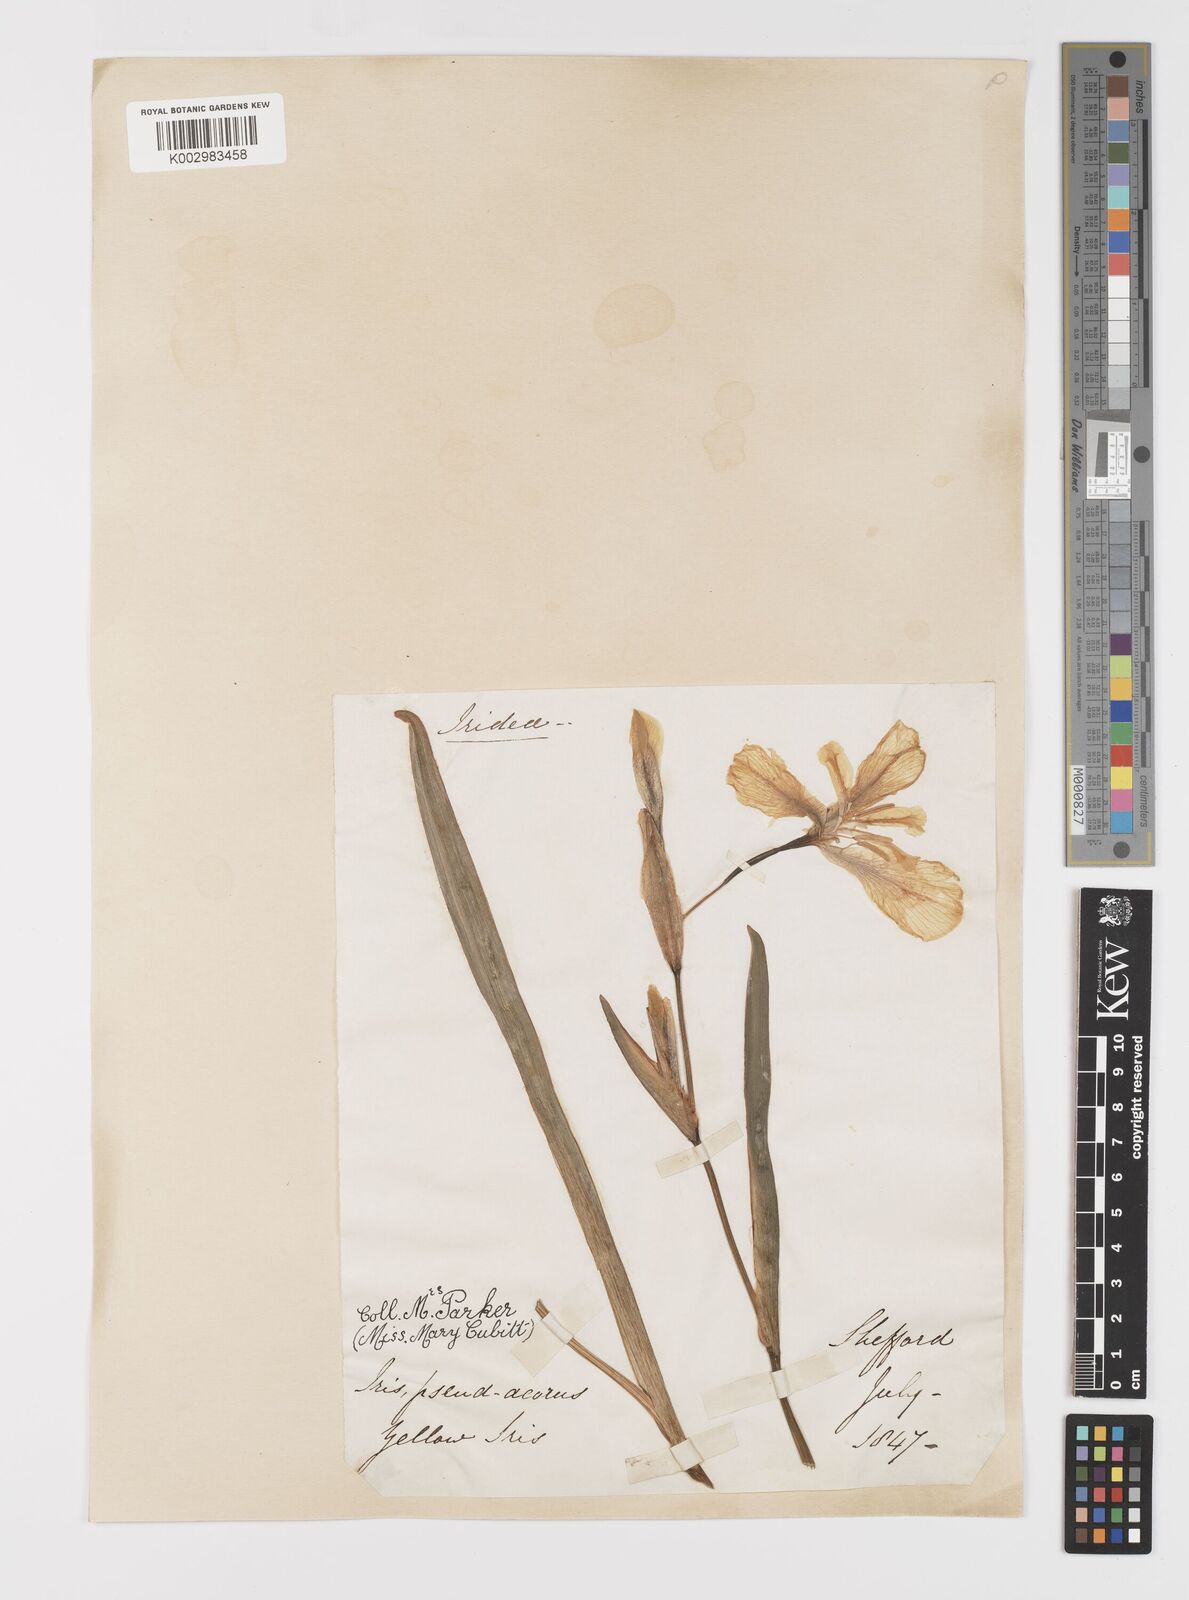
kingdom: Plantae
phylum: Tracheophyta
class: Liliopsida
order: Asparagales
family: Iridaceae
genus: Iris
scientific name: Iris pseudacorus
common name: Yellow flag
